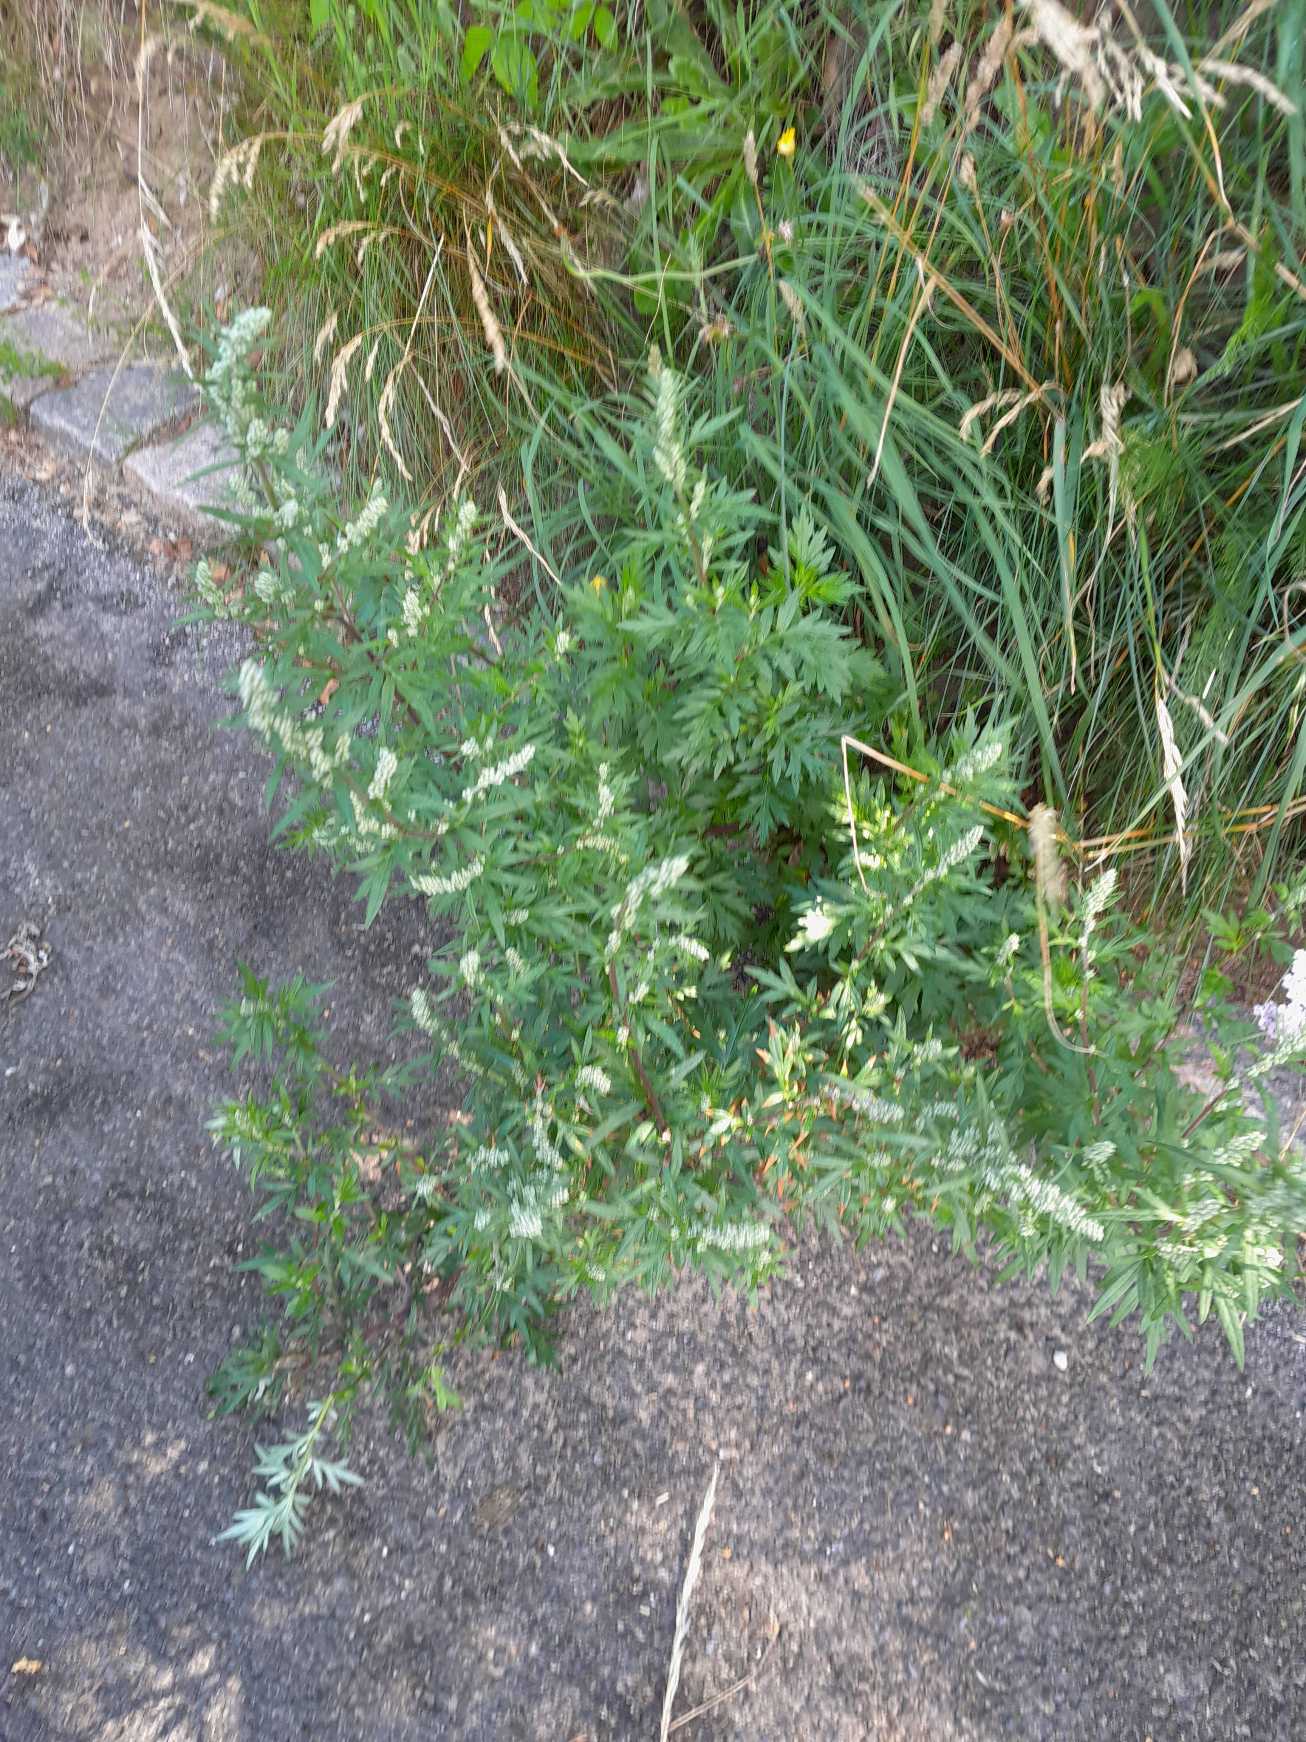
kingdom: Plantae
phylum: Tracheophyta
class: Magnoliopsida
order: Asterales
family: Asteraceae
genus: Artemisia
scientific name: Artemisia vulgaris
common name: Grå-bynke
